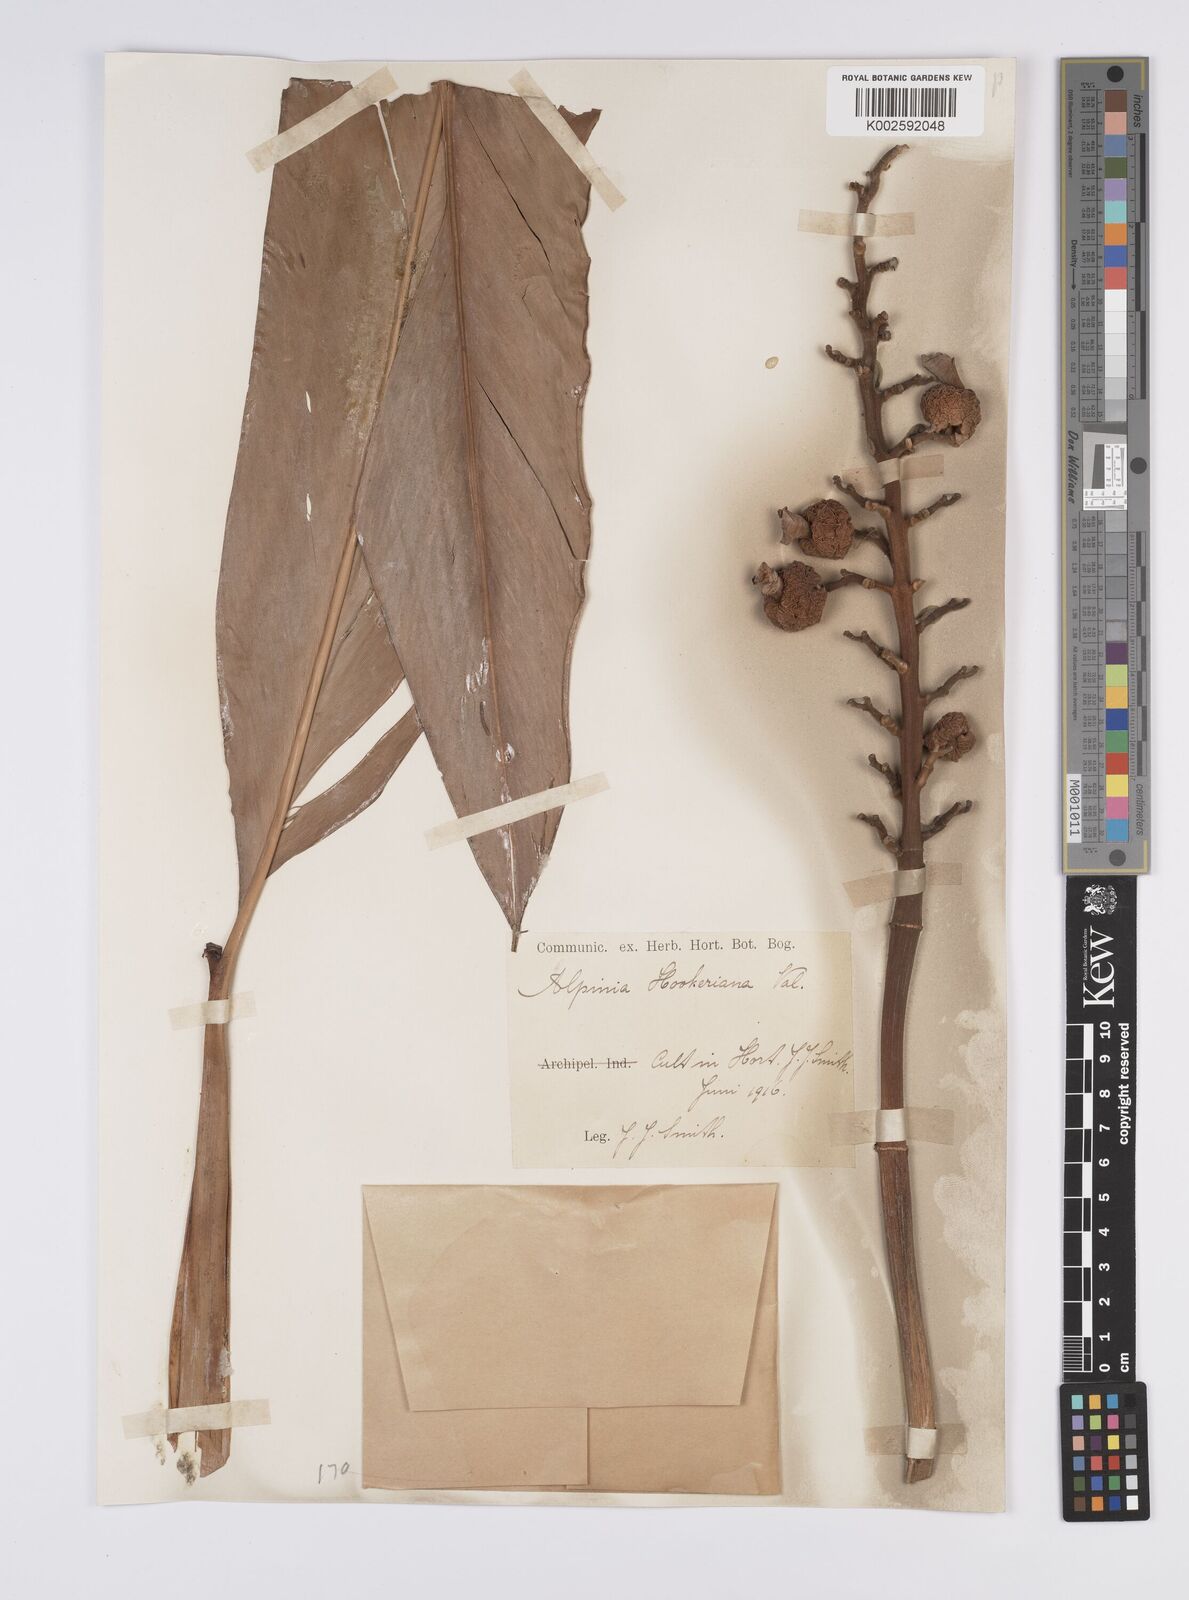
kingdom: Plantae
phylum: Tracheophyta
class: Liliopsida
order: Zingiberales
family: Zingiberaceae
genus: Alpinia
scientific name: Alpinia assimilis
